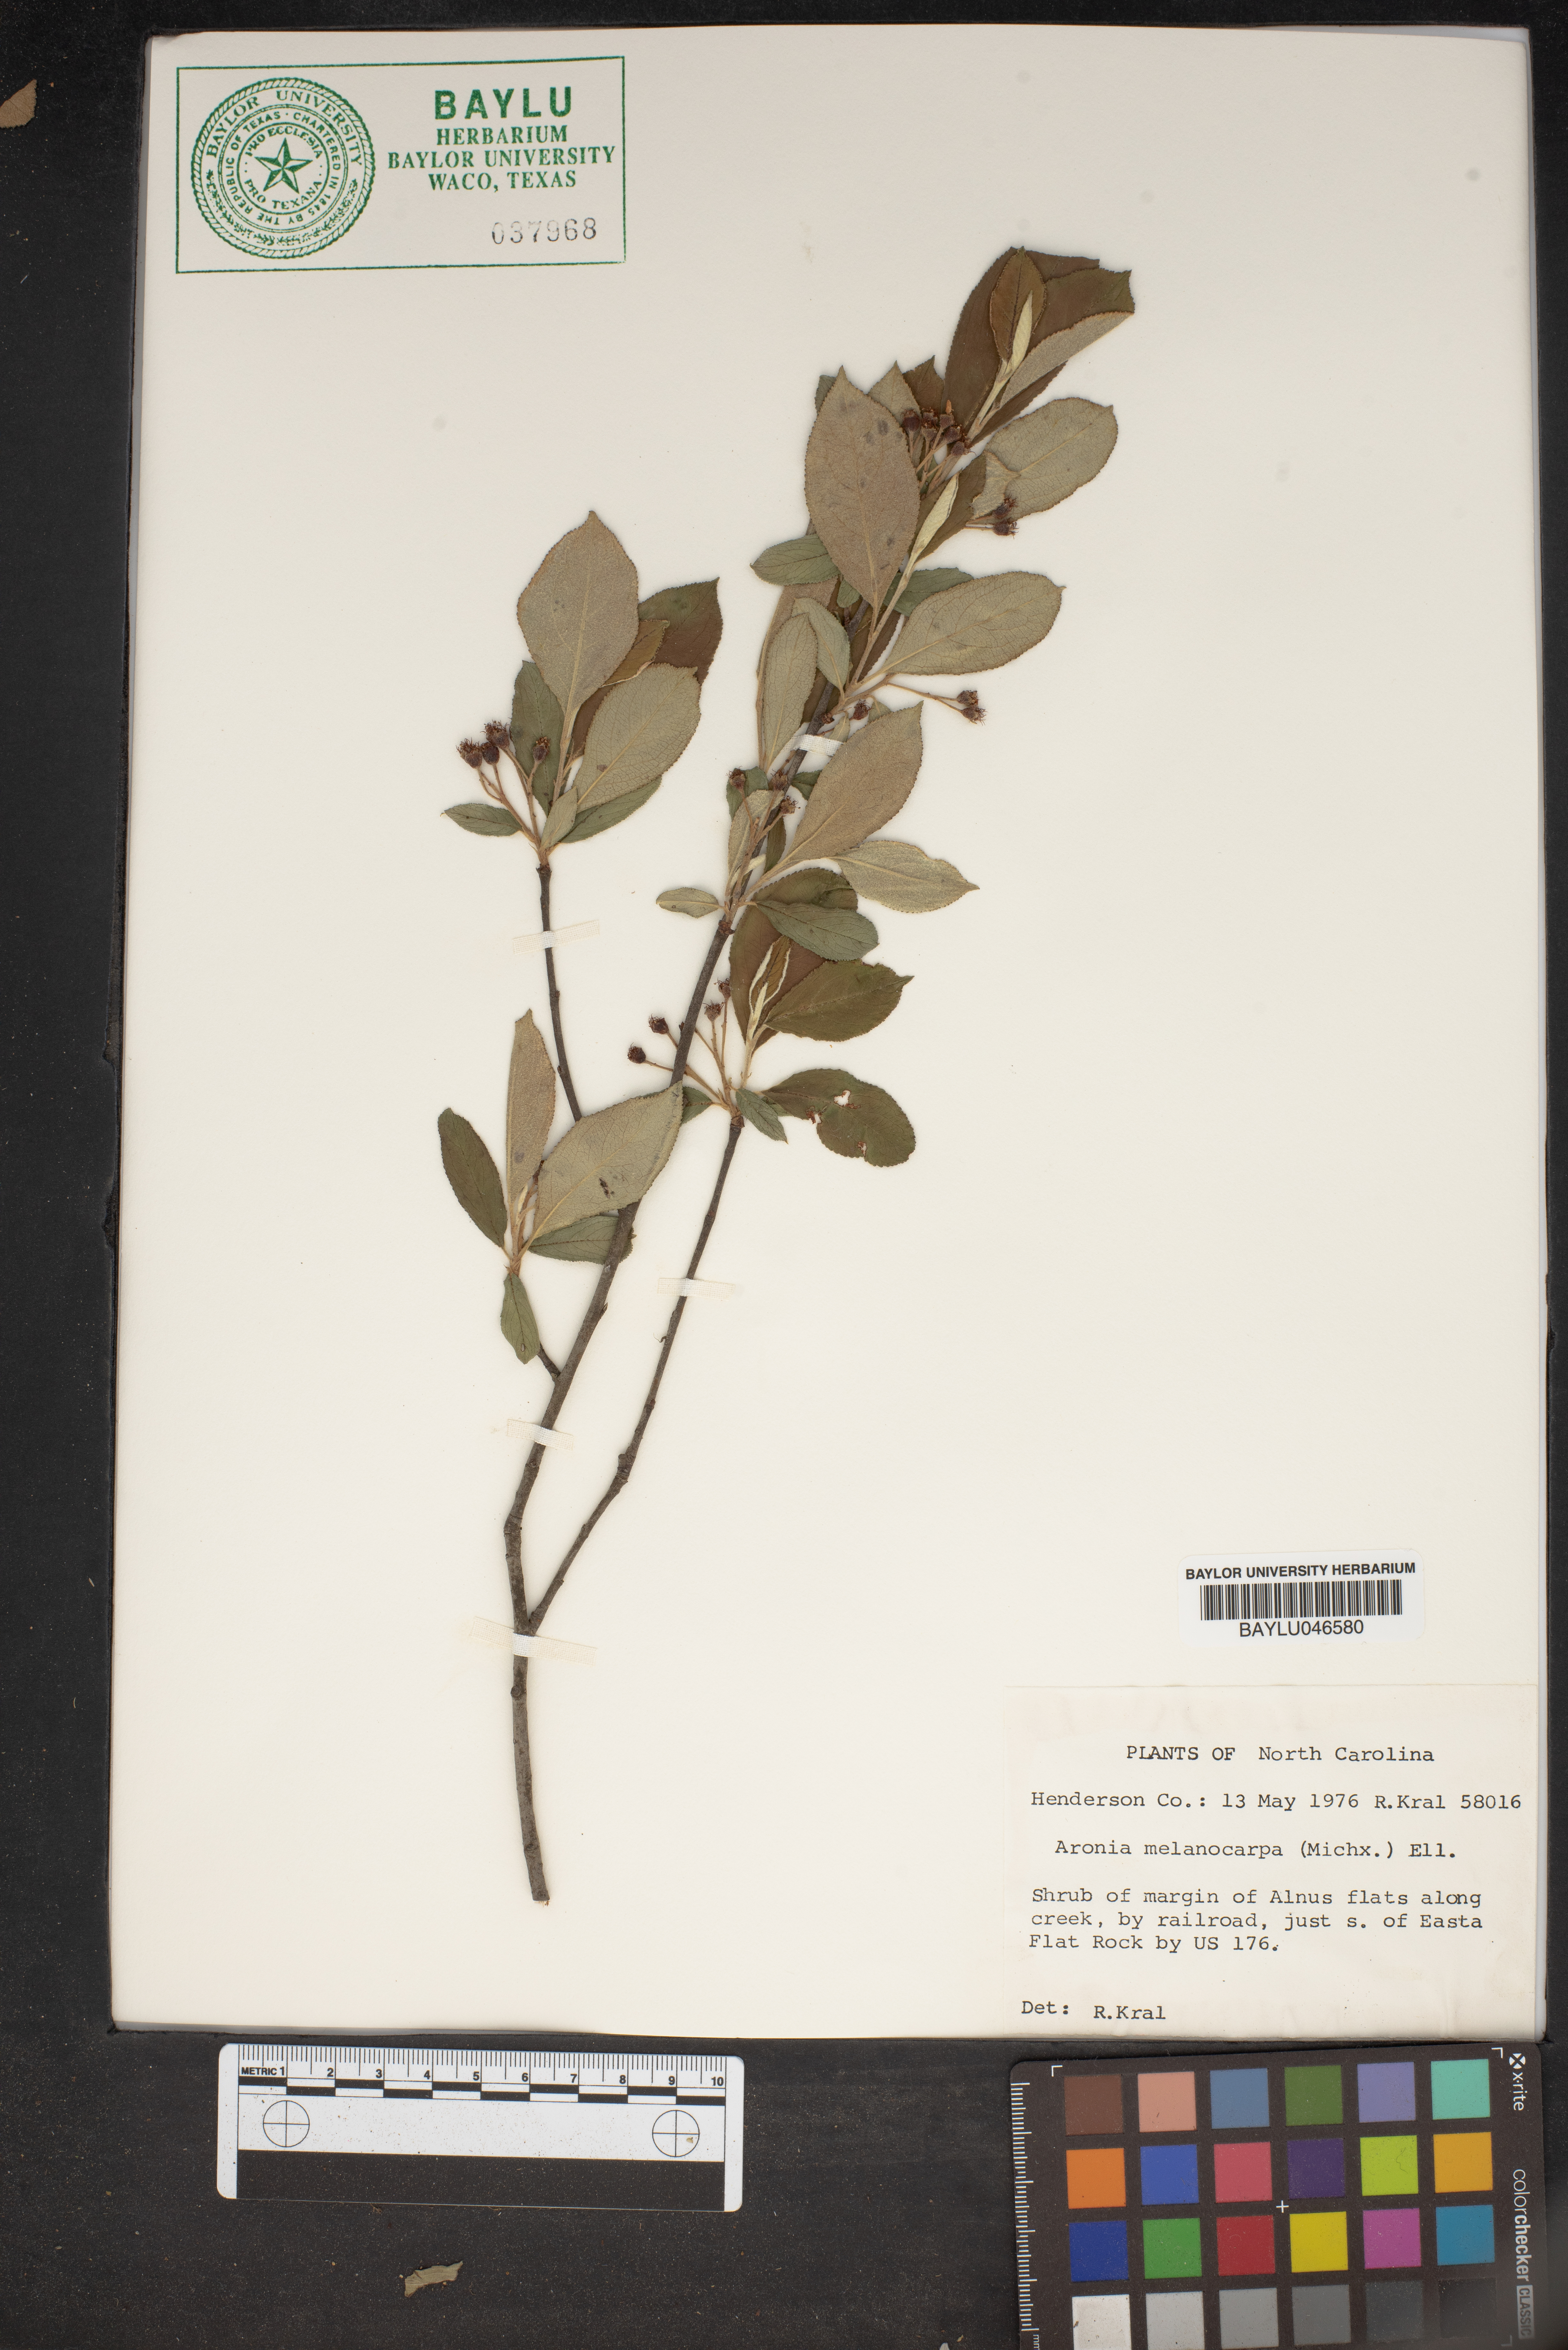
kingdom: Plantae
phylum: Tracheophyta
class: Magnoliopsida
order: Rosales
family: Rosaceae
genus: Aronia
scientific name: Aronia melanocarpa
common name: Black chokeberry
